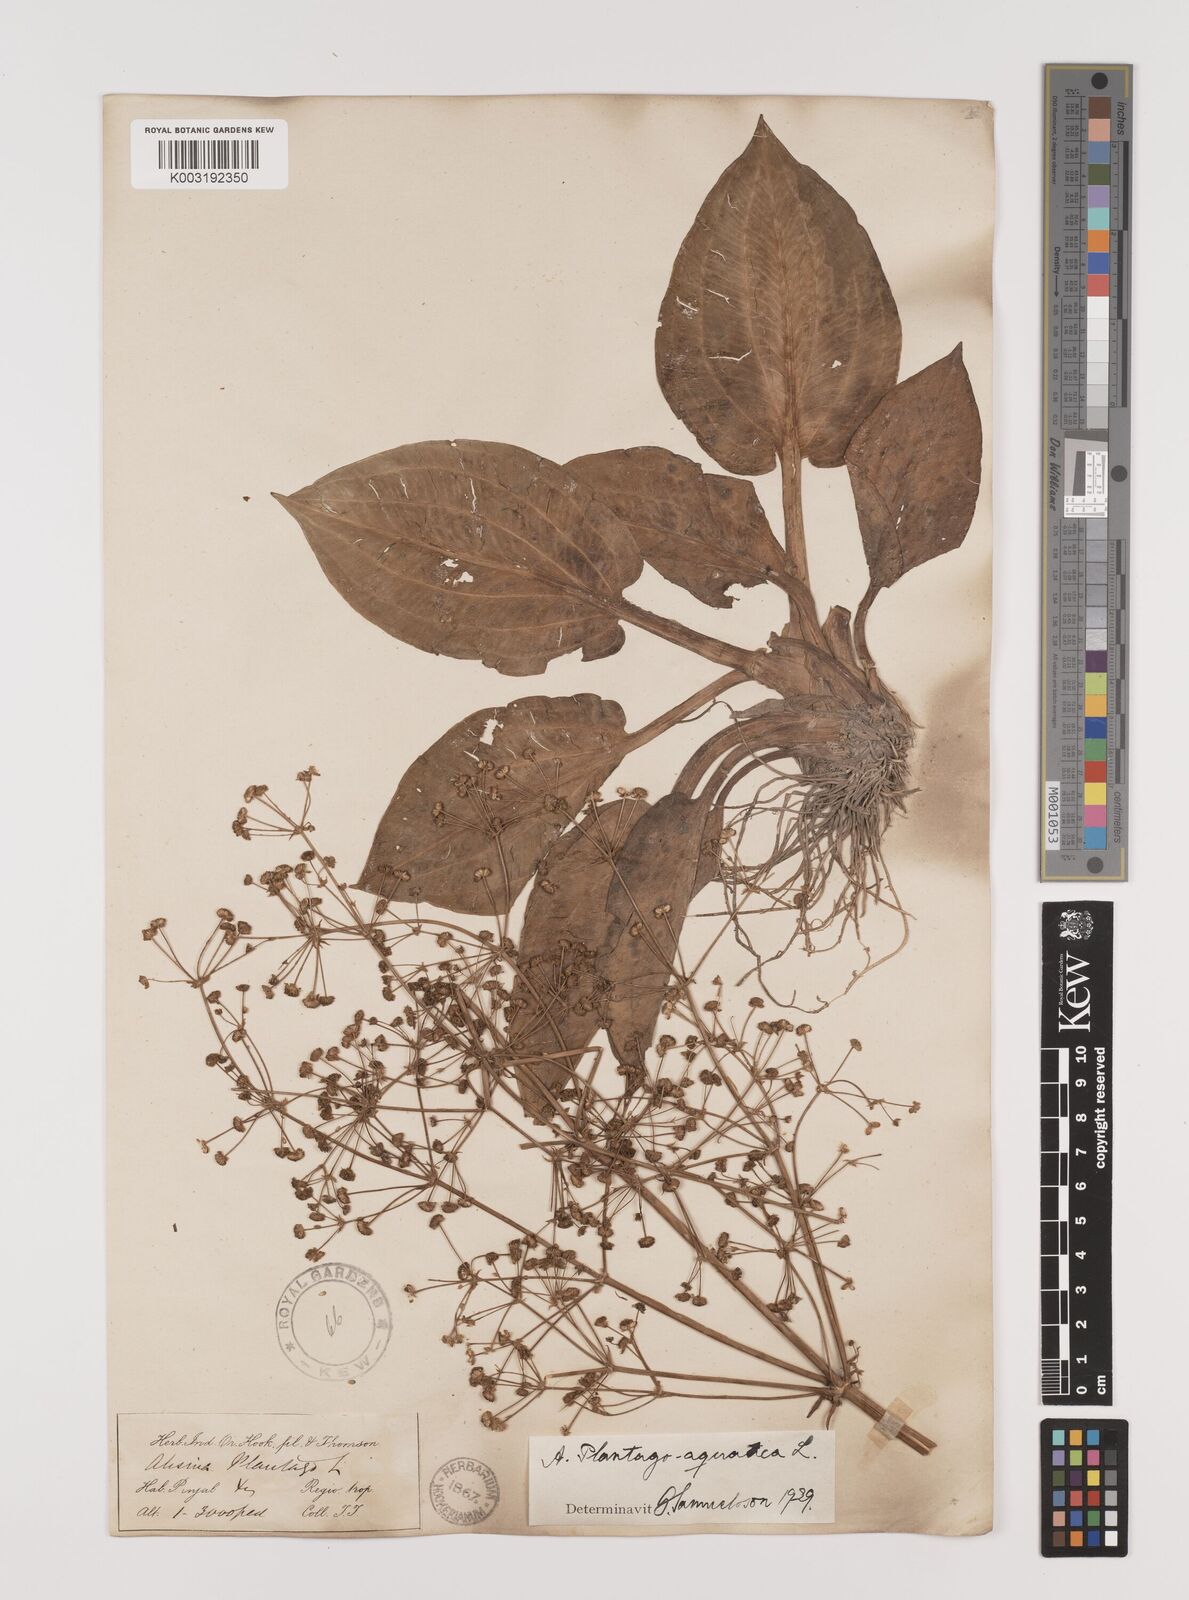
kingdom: Plantae
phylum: Tracheophyta
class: Liliopsida
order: Alismatales
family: Alismataceae
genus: Alisma
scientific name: Alisma plantago-aquatica
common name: Water-plantain
